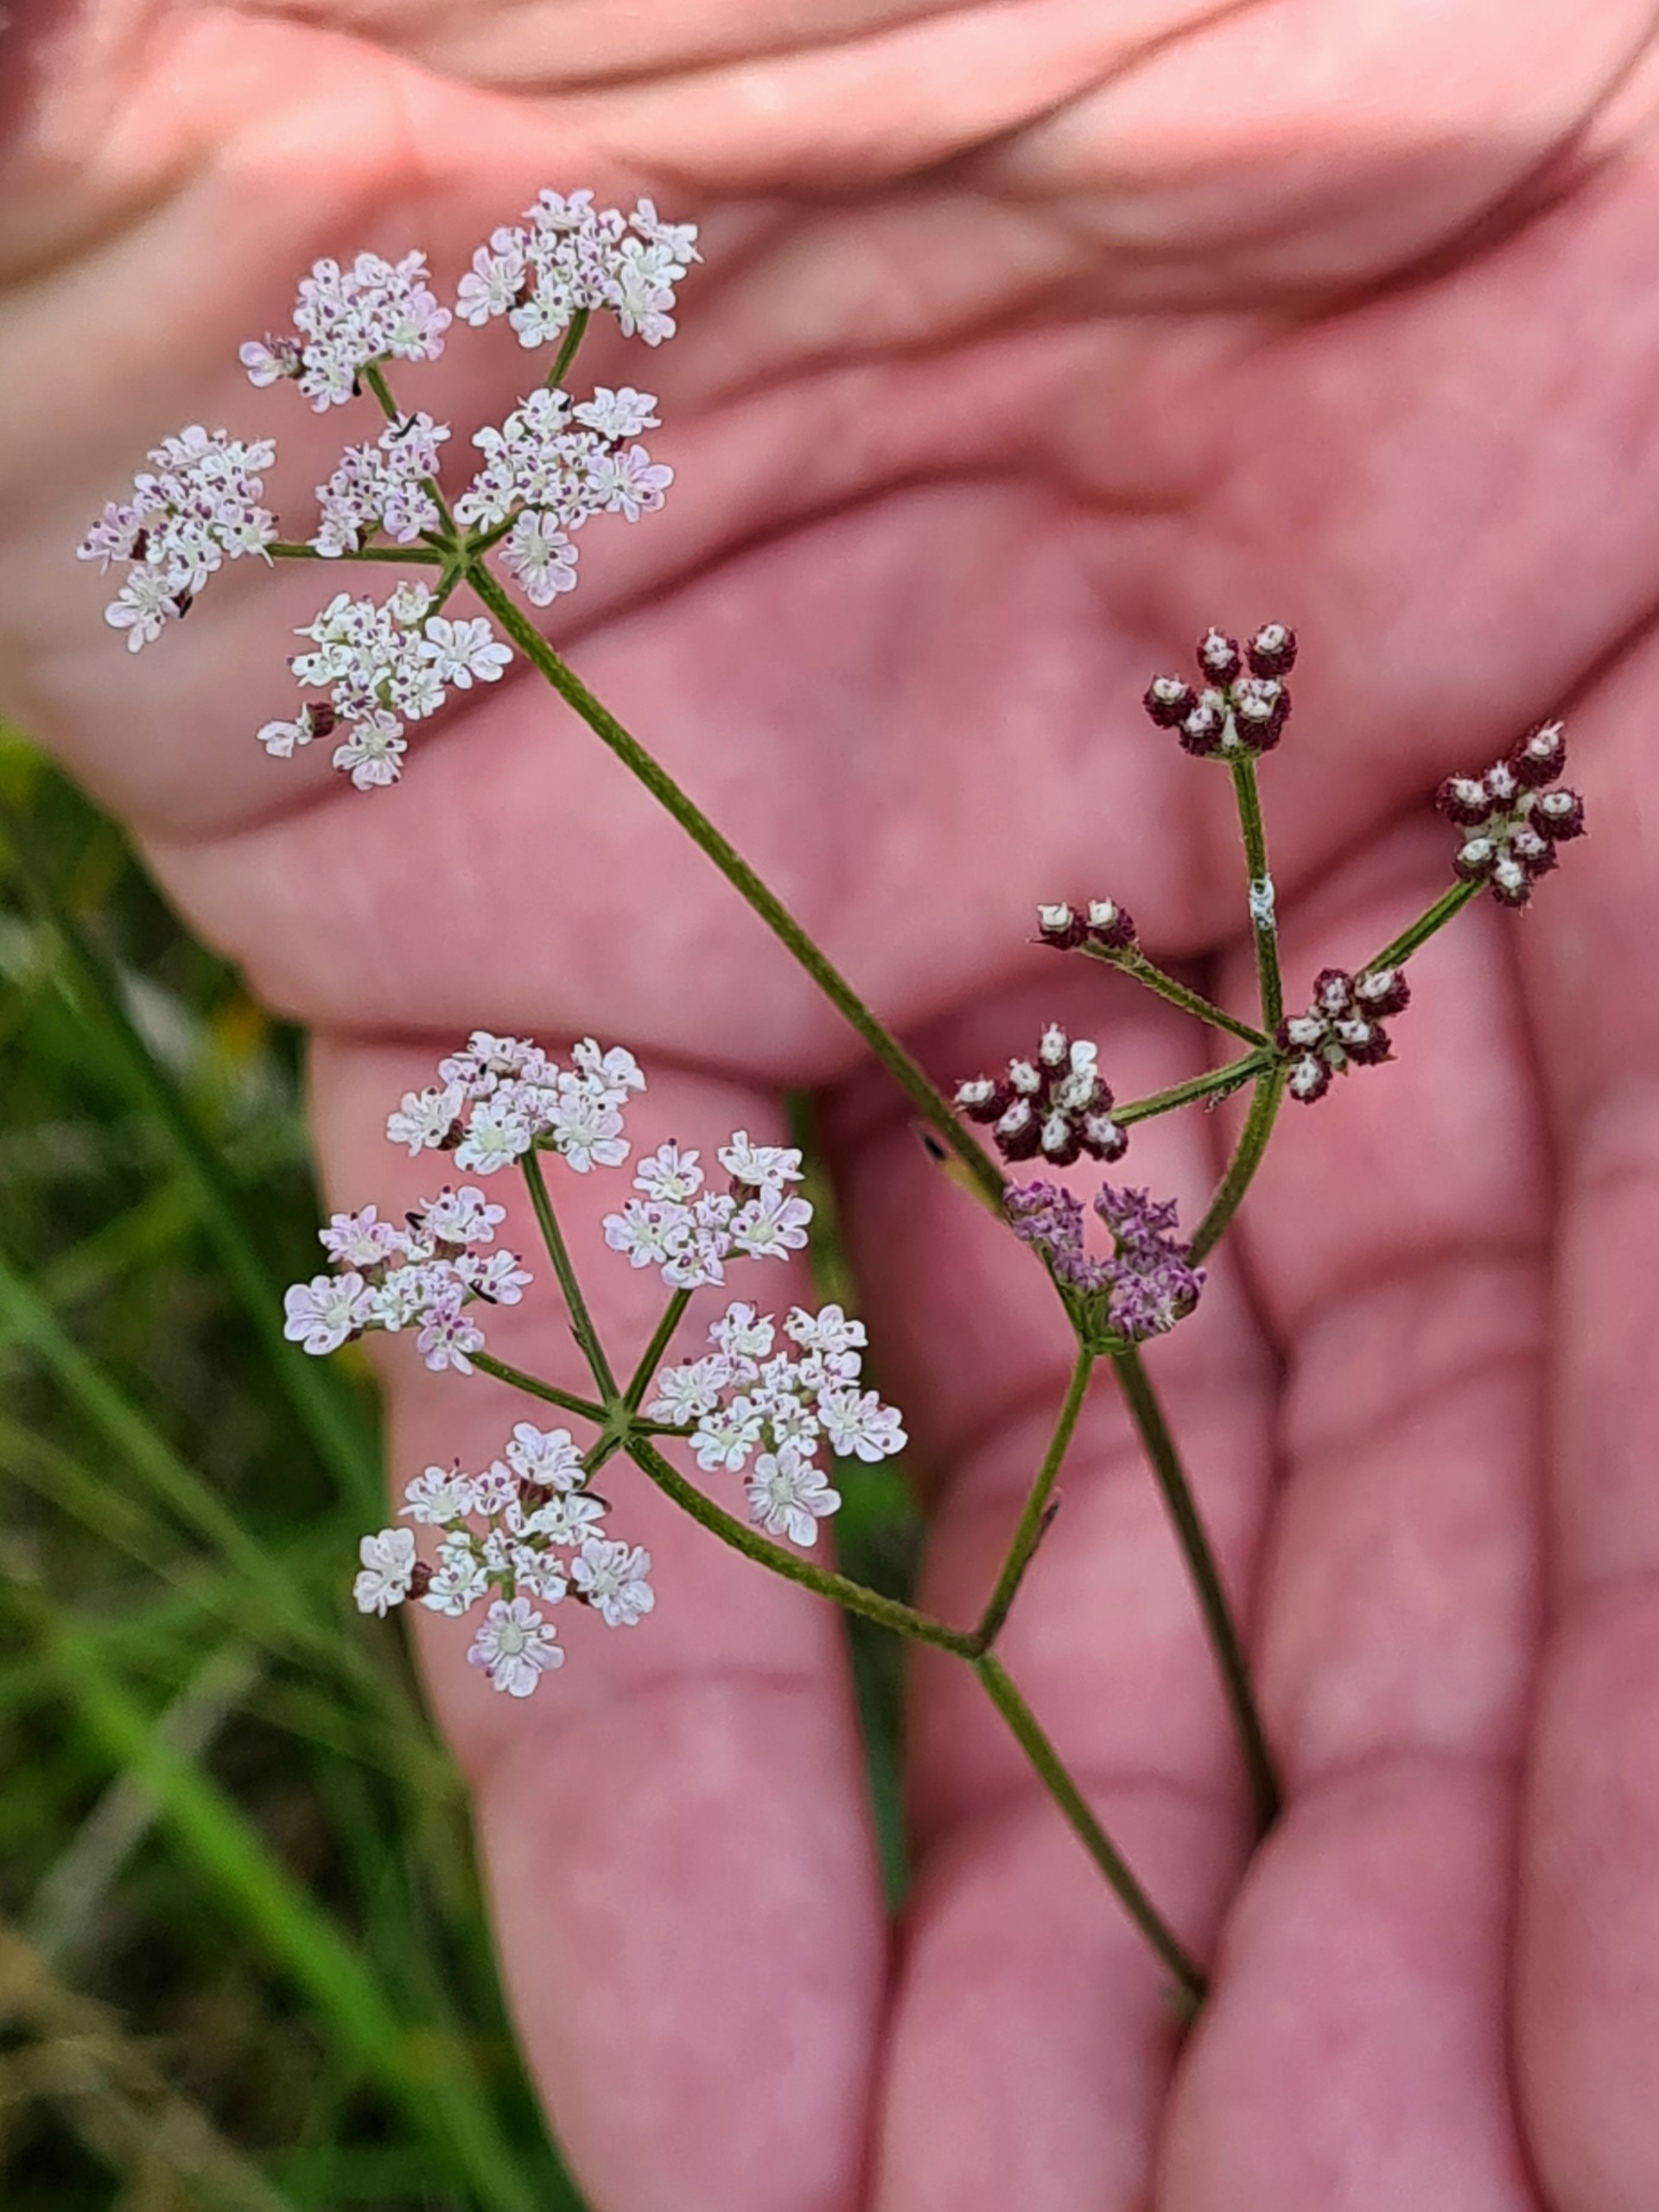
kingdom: Plantae
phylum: Tracheophyta
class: Magnoliopsida
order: Apiales
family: Apiaceae
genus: Torilis
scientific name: Torilis japonica
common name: Hvas randfrø
